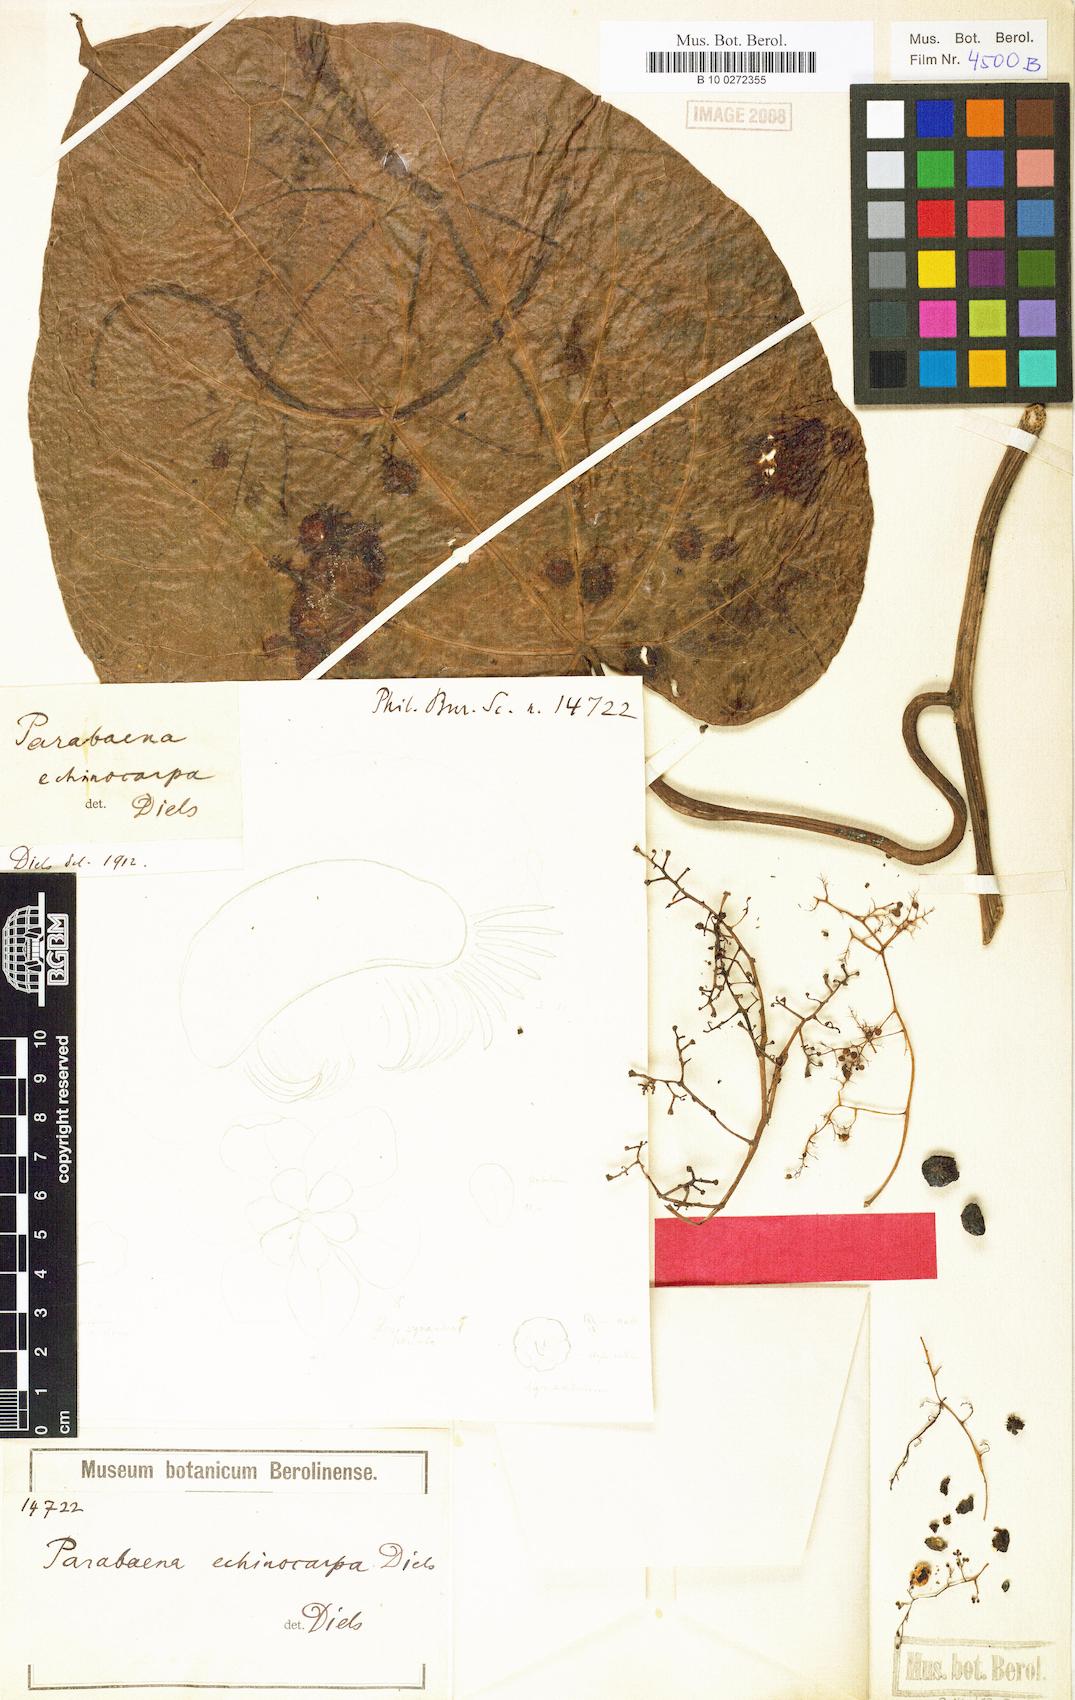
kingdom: Plantae
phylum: Tracheophyta
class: Magnoliopsida
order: Ranunculales
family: Menispermaceae
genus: Parabaena
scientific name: Parabaena echinocarpa
